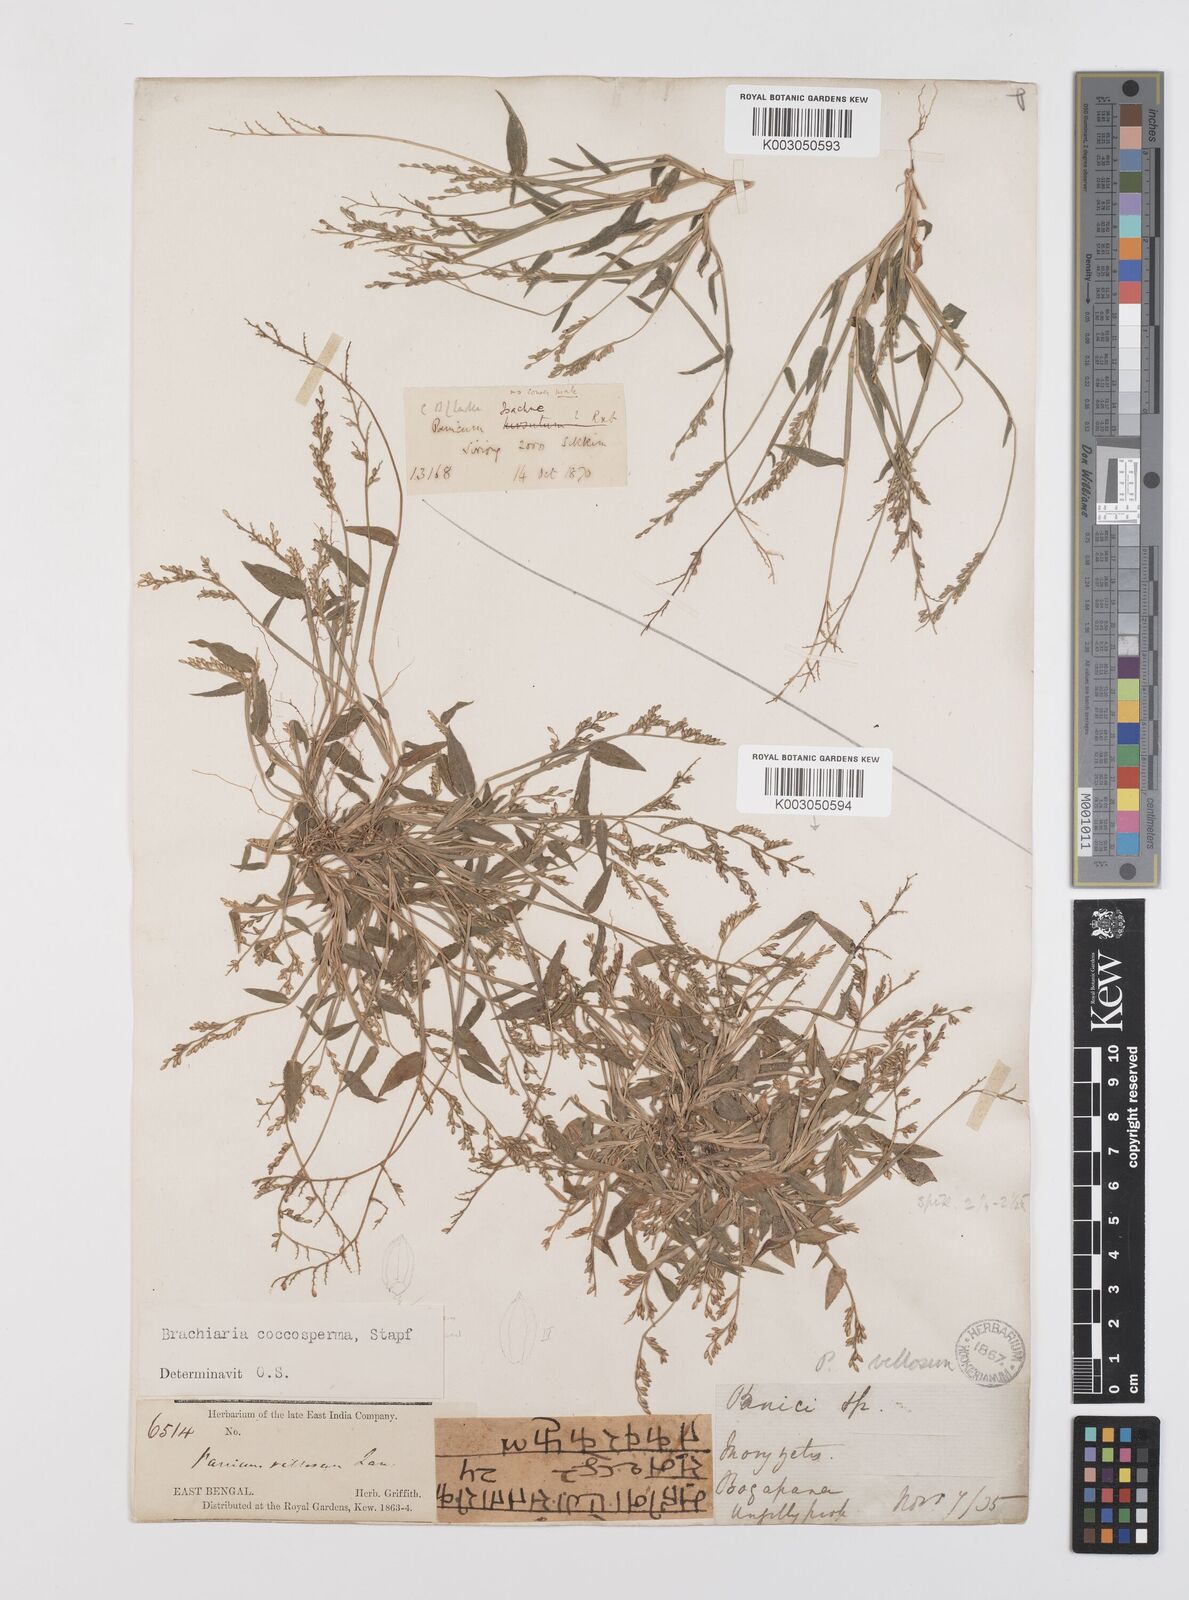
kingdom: Plantae
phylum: Tracheophyta
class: Liliopsida
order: Poales
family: Poaceae
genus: Urochloa
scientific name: Urochloa villosa
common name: Hairy signalgrass
